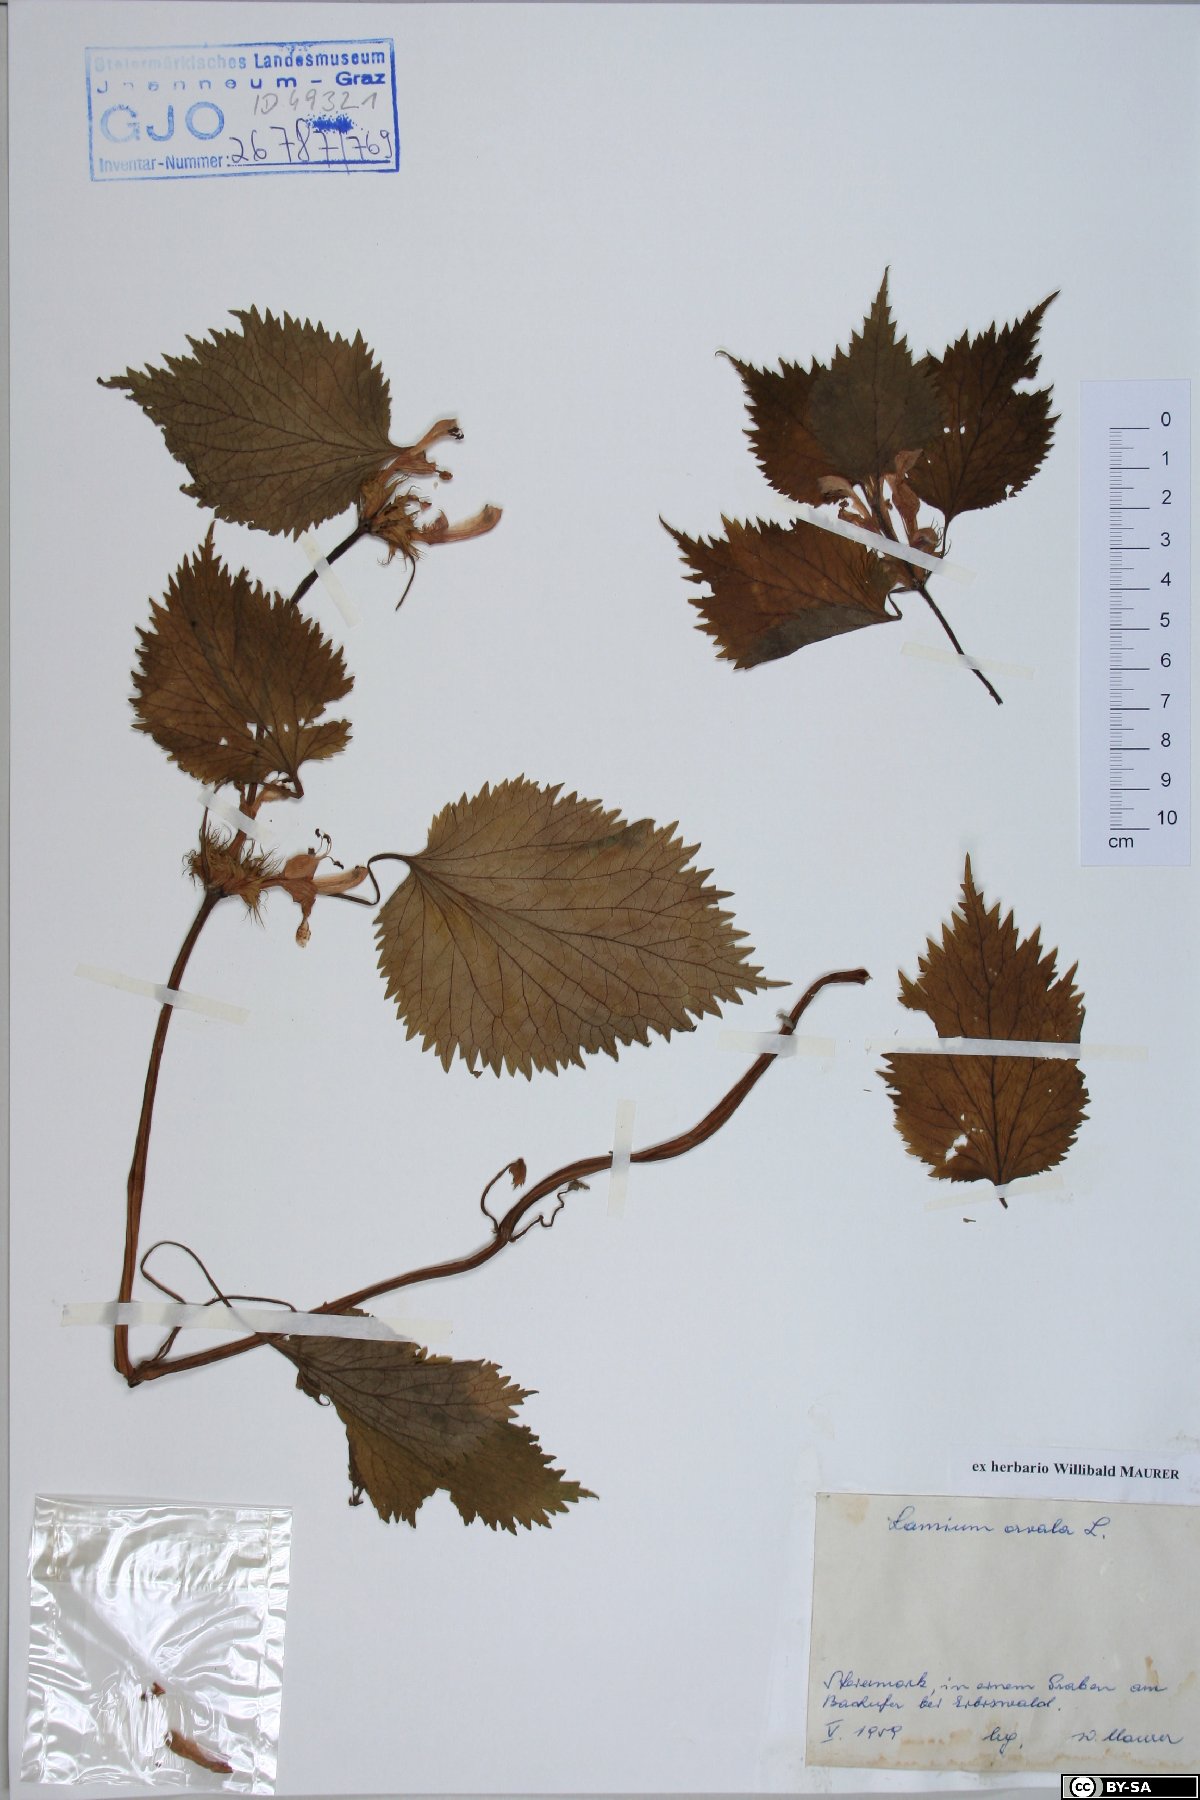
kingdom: Plantae
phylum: Tracheophyta
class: Magnoliopsida
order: Lamiales
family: Lamiaceae
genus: Lamium
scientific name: Lamium orvala
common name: Balm-leaved archangel
